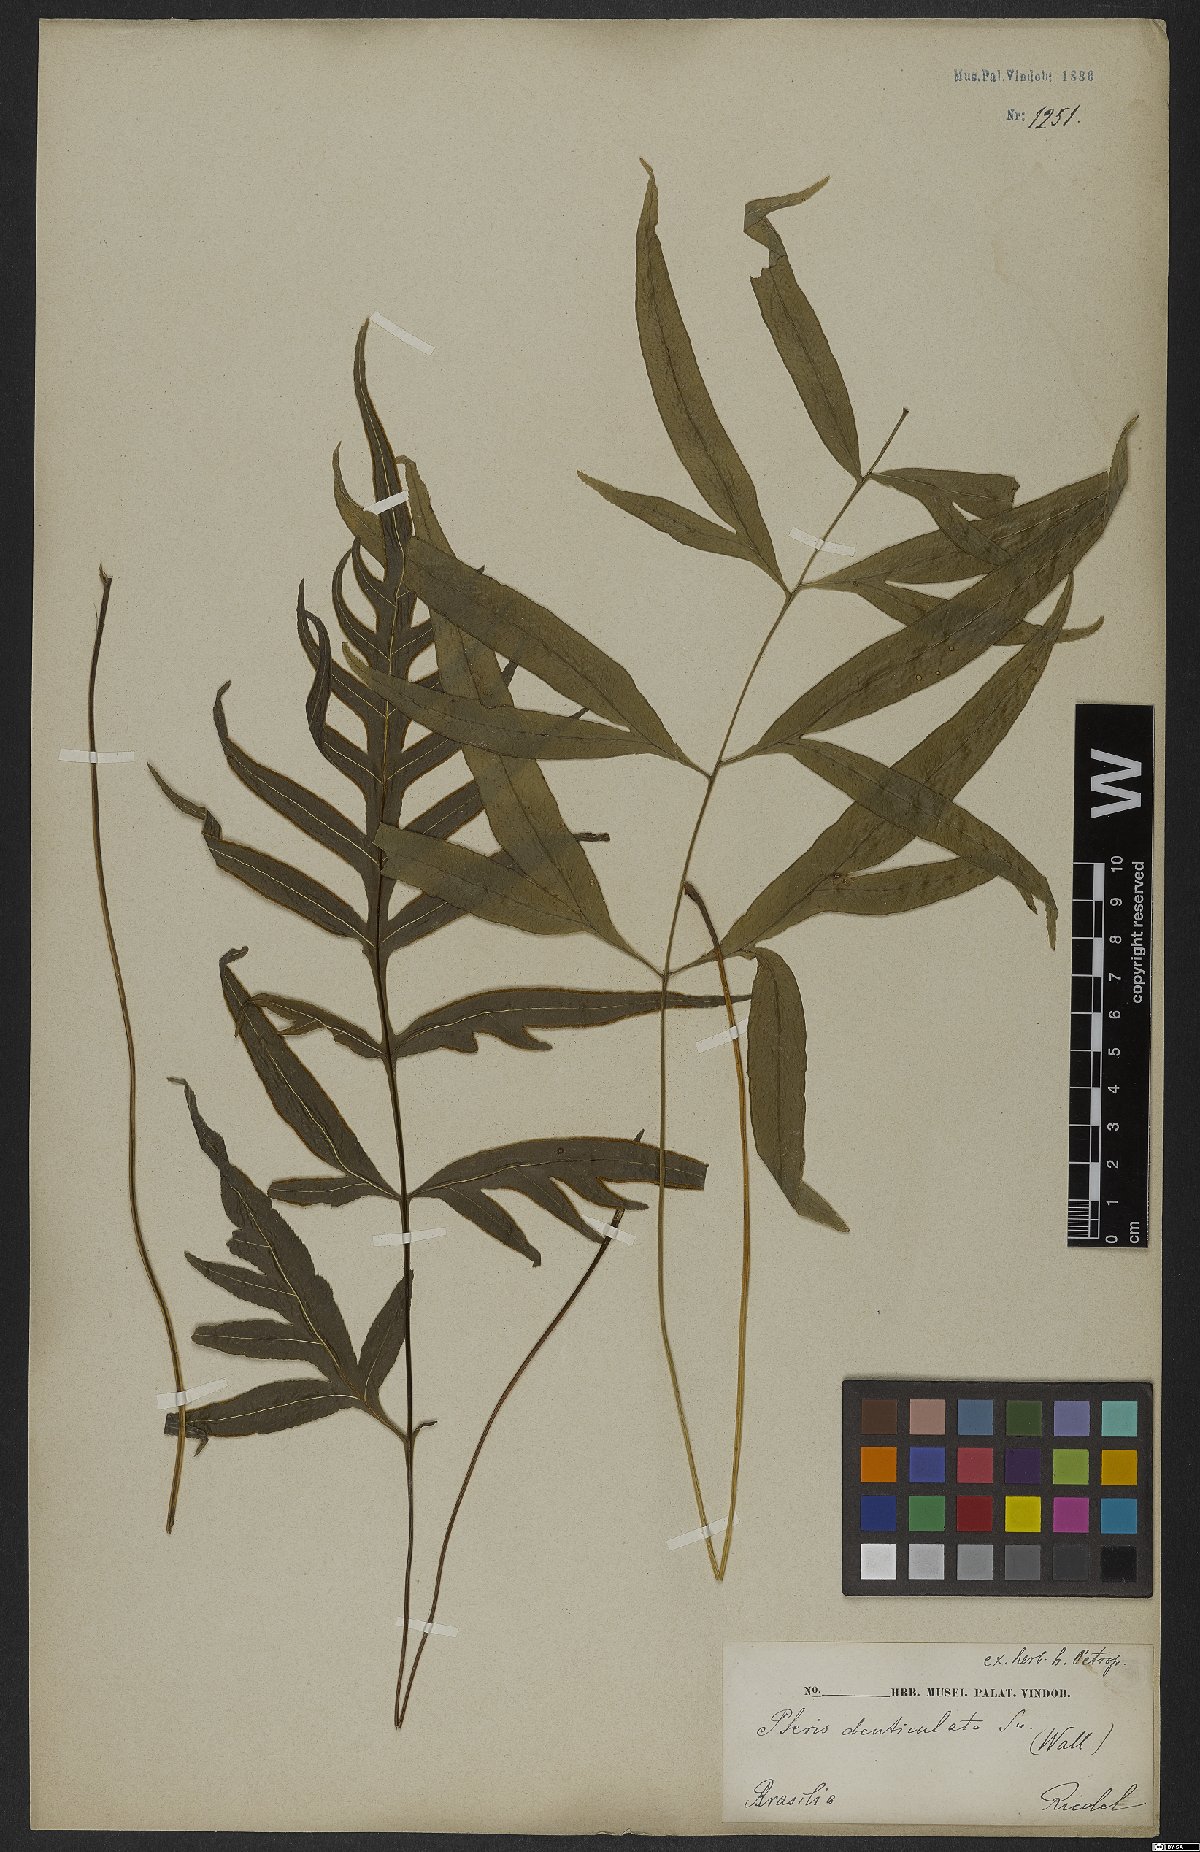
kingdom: Plantae
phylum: Tracheophyta
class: Polypodiopsida
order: Polypodiales
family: Pteridaceae
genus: Pteris
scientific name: Pteris denticulata
